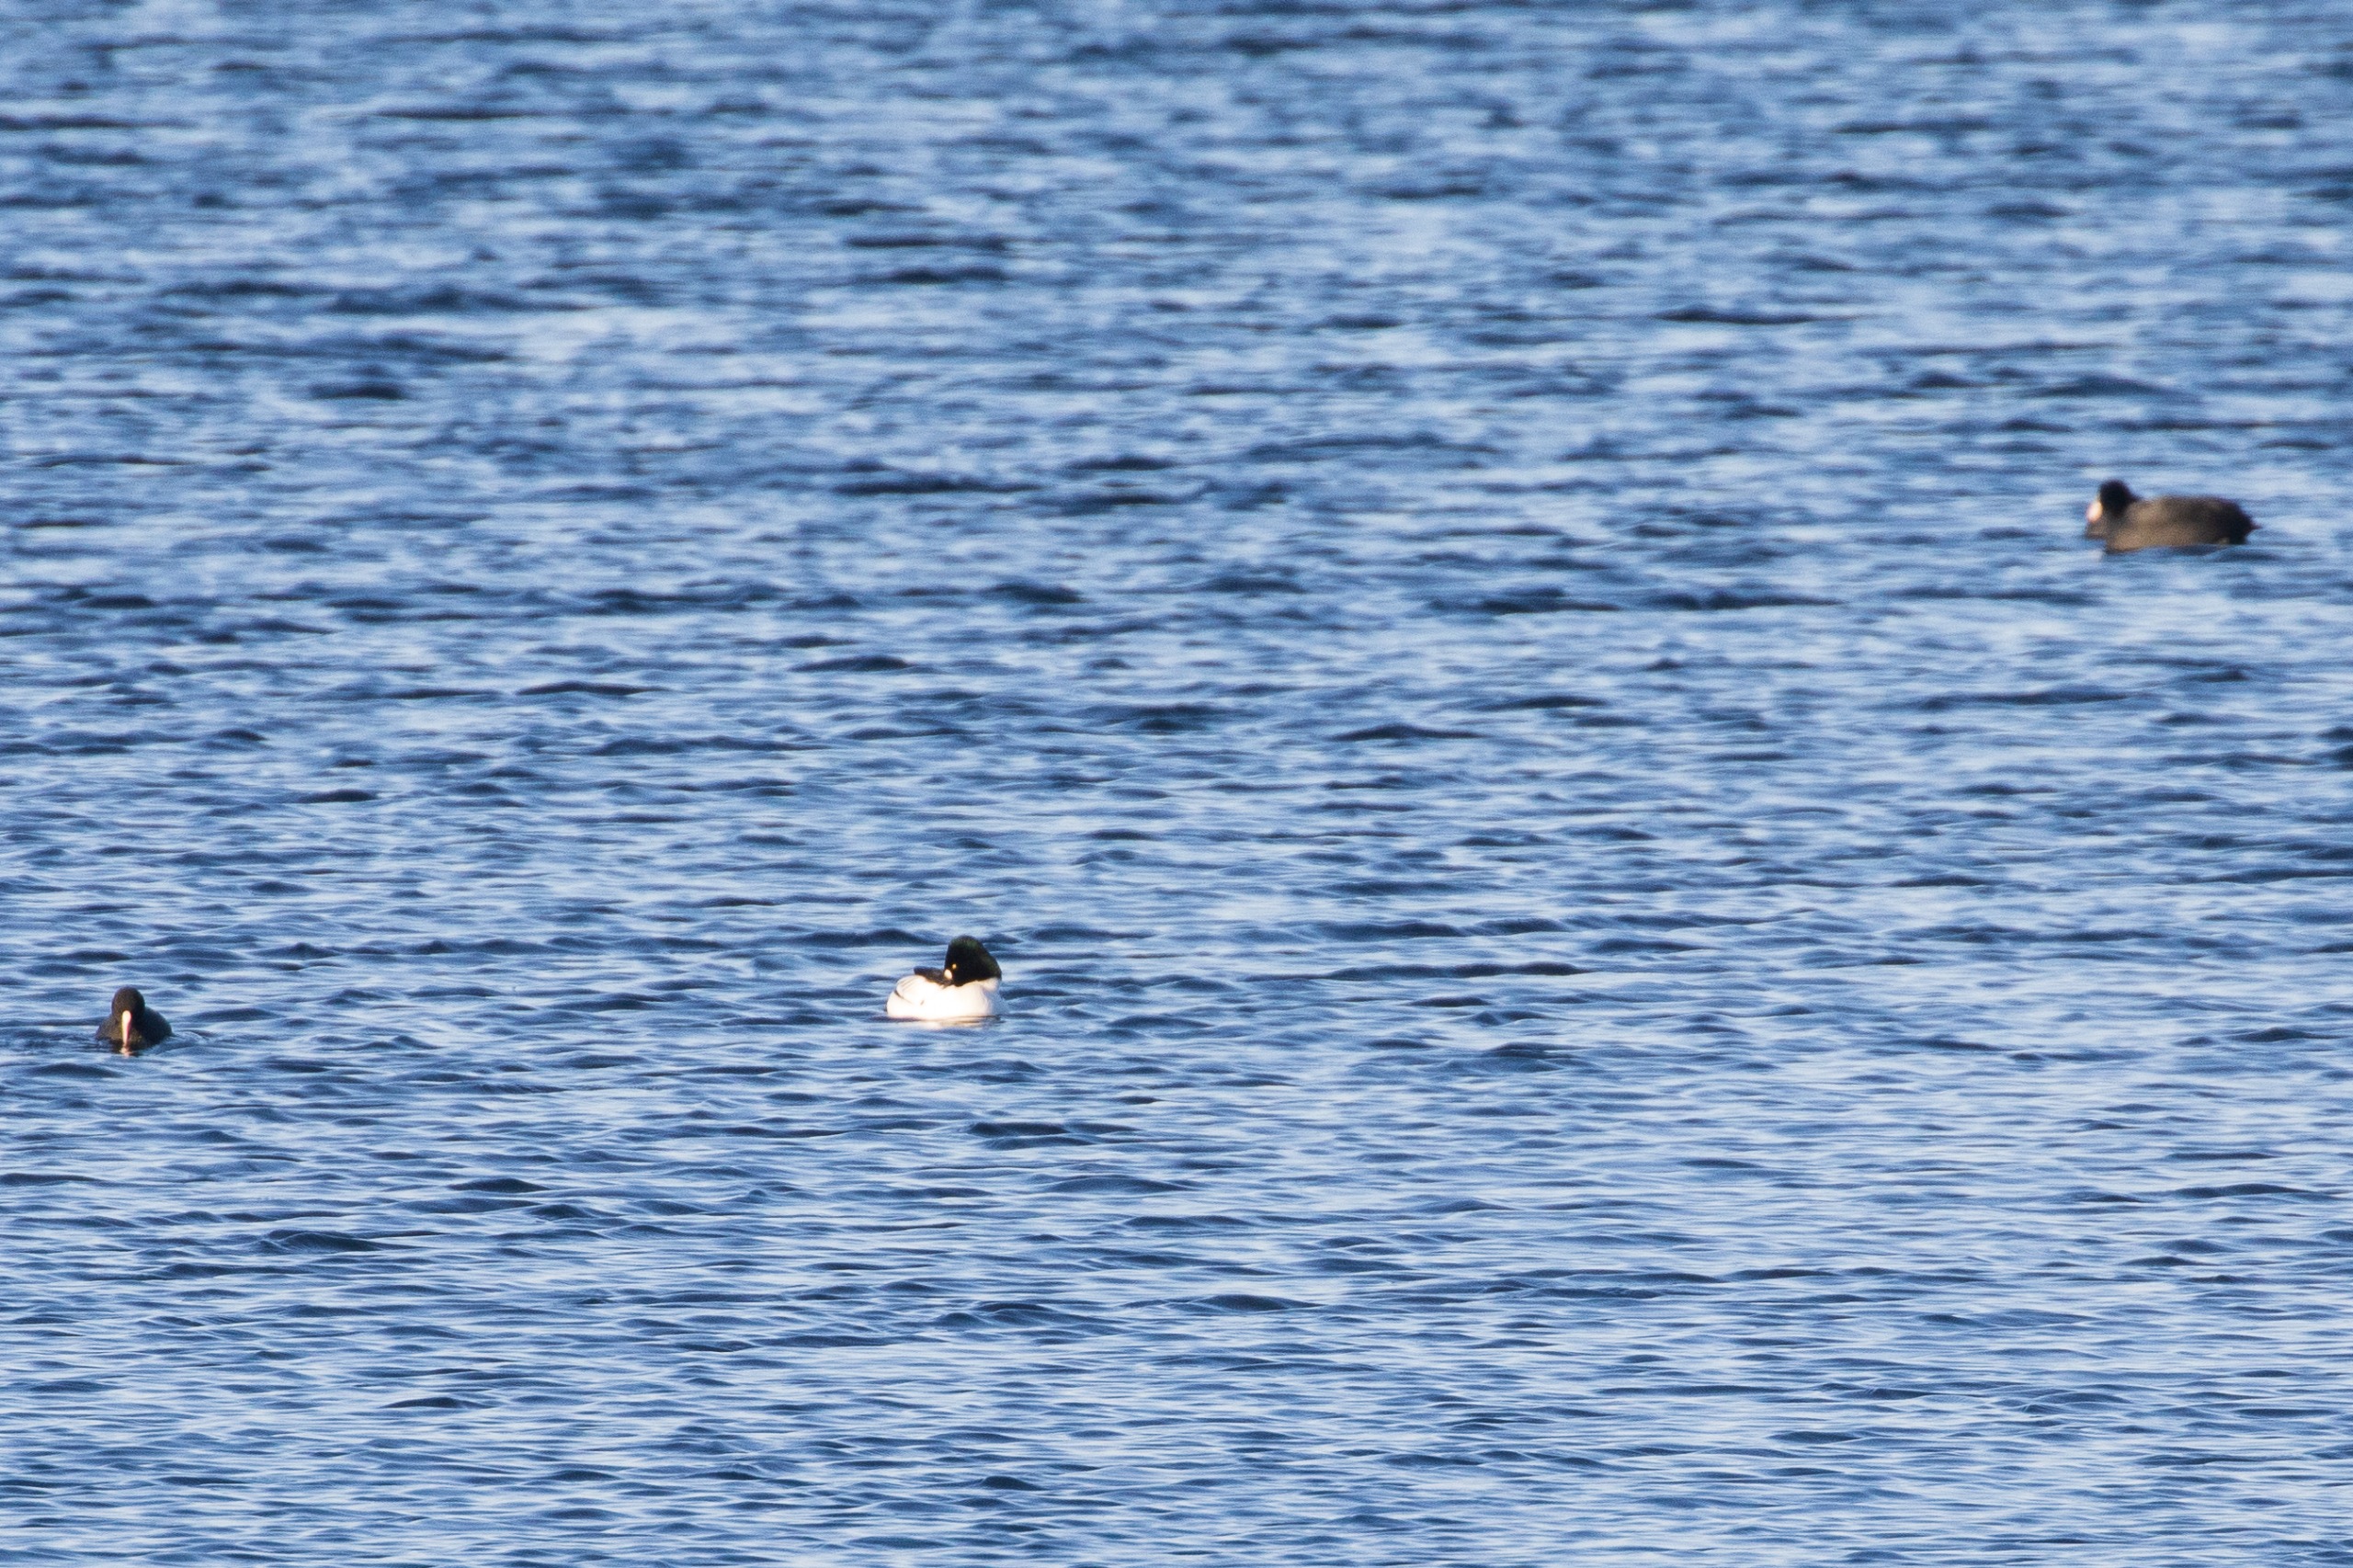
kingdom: Animalia
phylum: Chordata
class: Aves
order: Anseriformes
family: Anatidae
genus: Bucephala
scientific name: Bucephala clangula
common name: Hvinand
